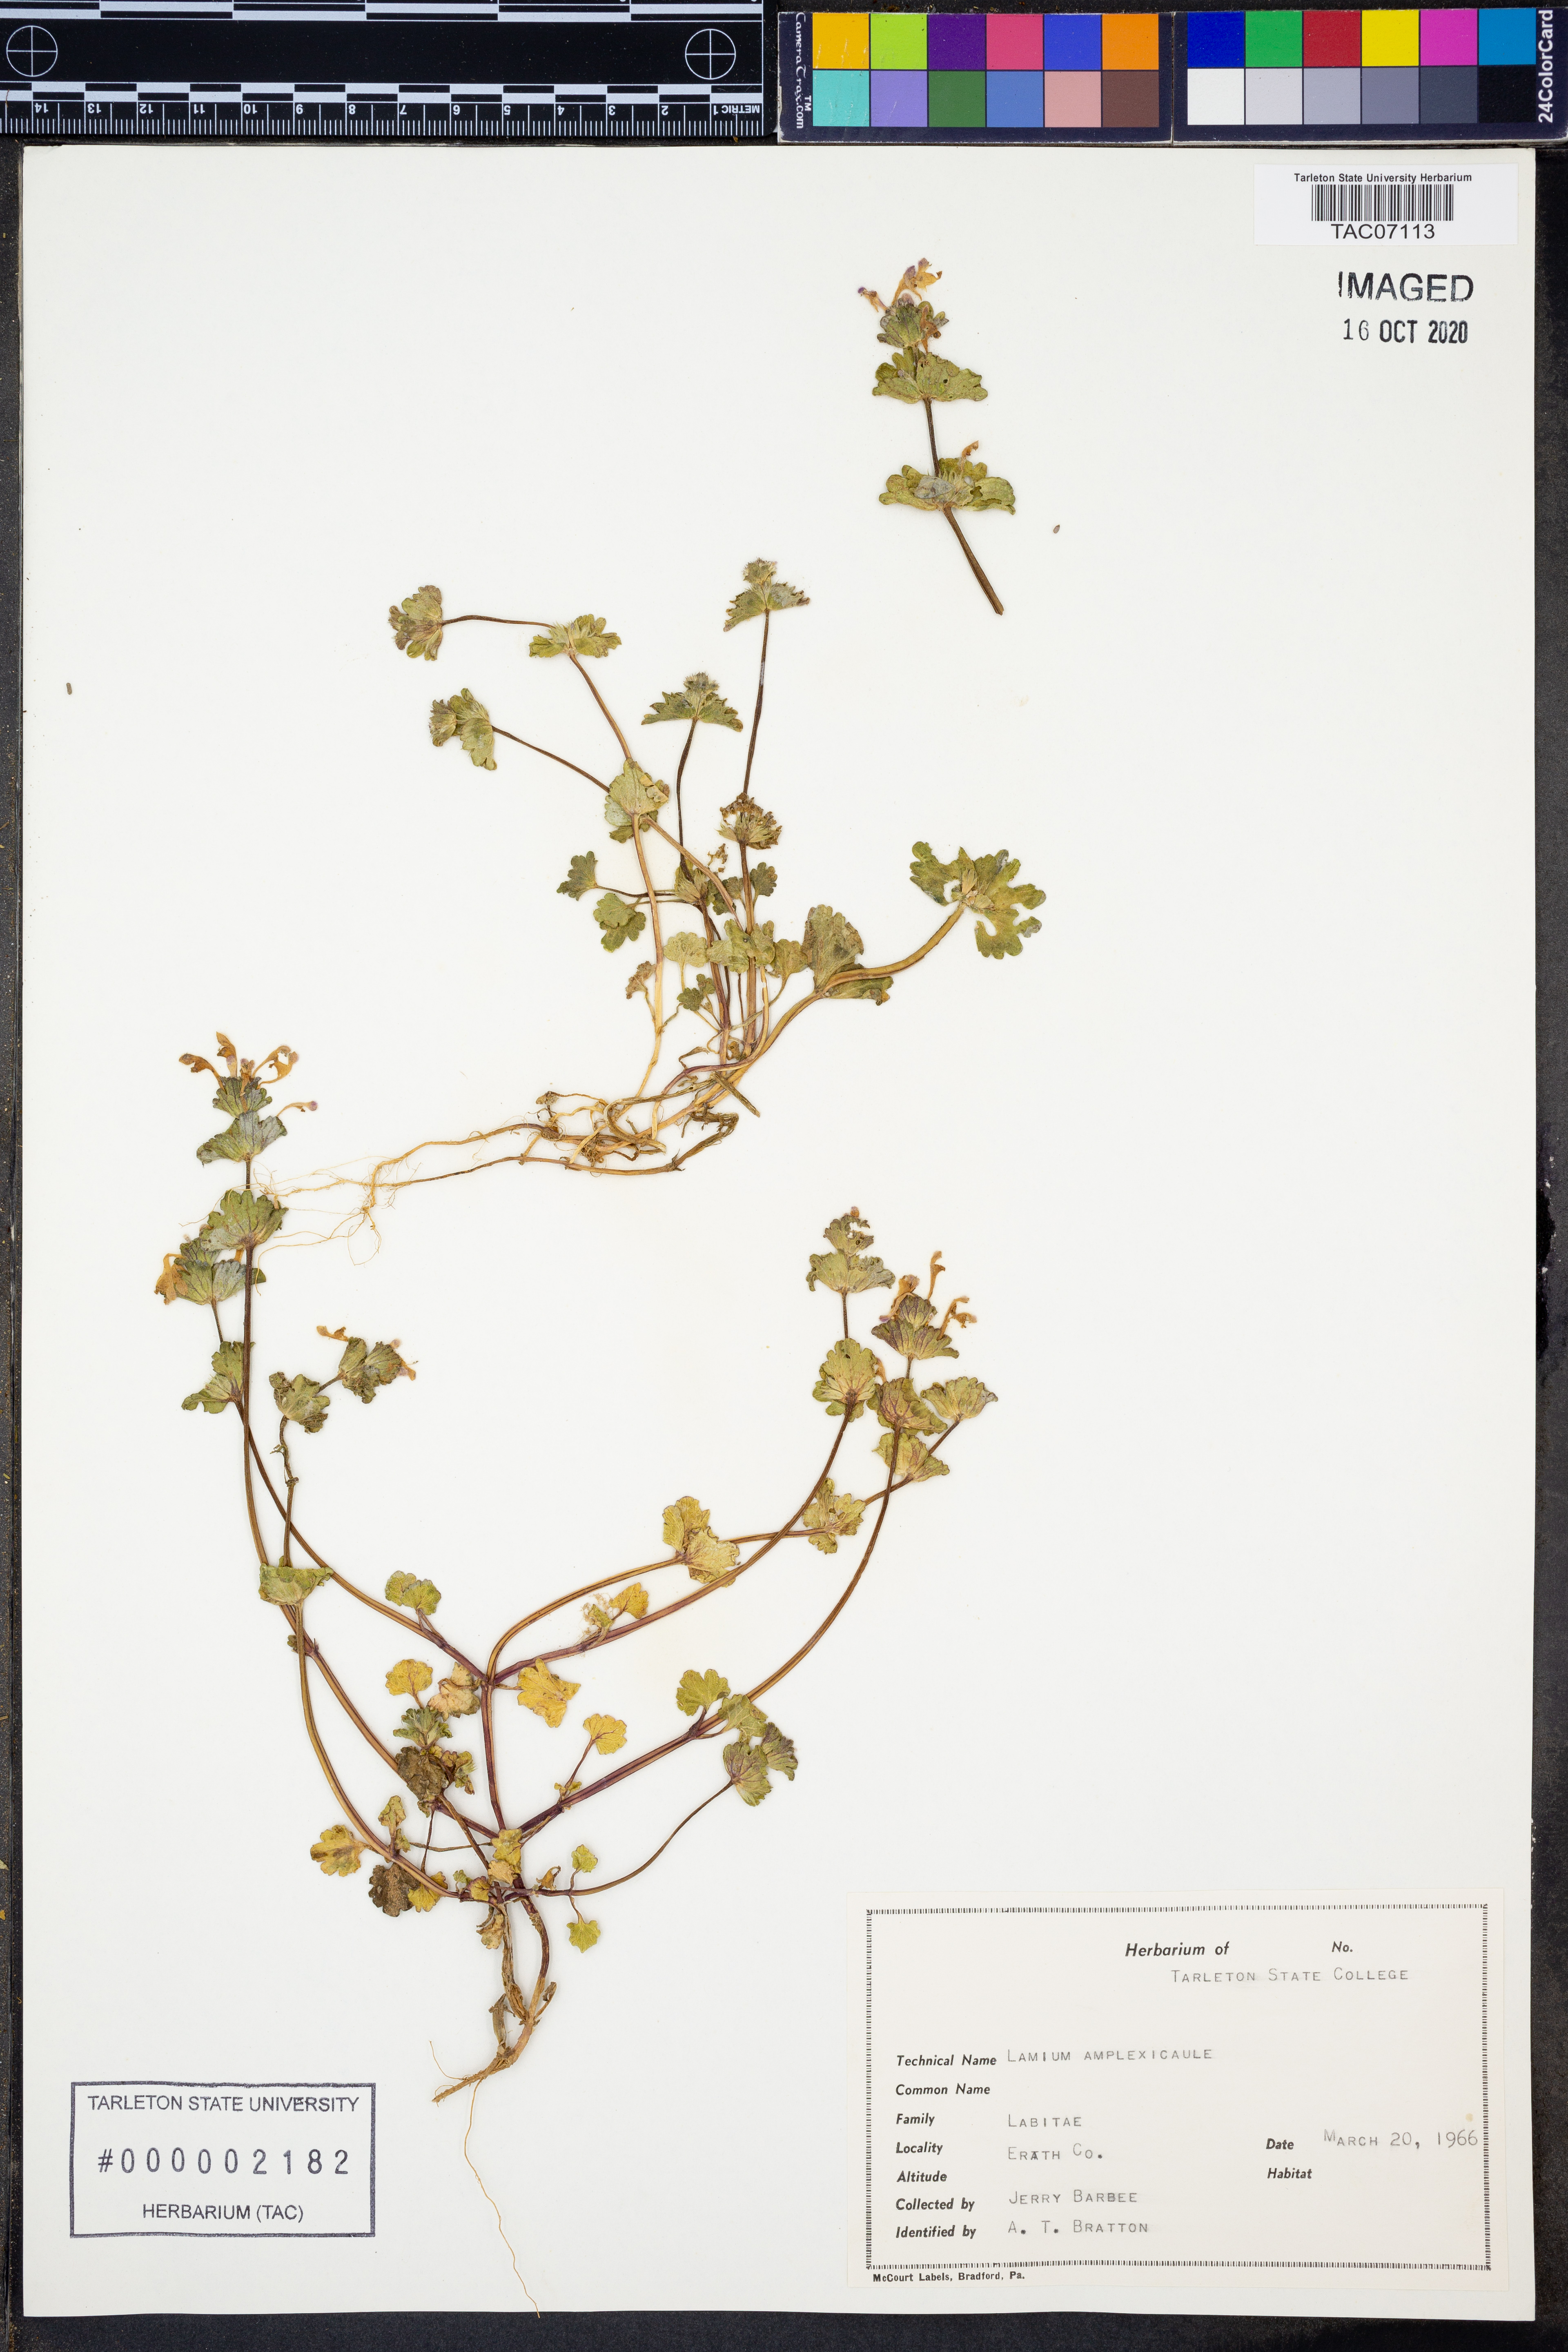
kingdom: Plantae
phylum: Tracheophyta
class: Magnoliopsida
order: Lamiales
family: Lamiaceae
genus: Lamium
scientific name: Lamium amplexicaule
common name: Henbit dead-nettle
